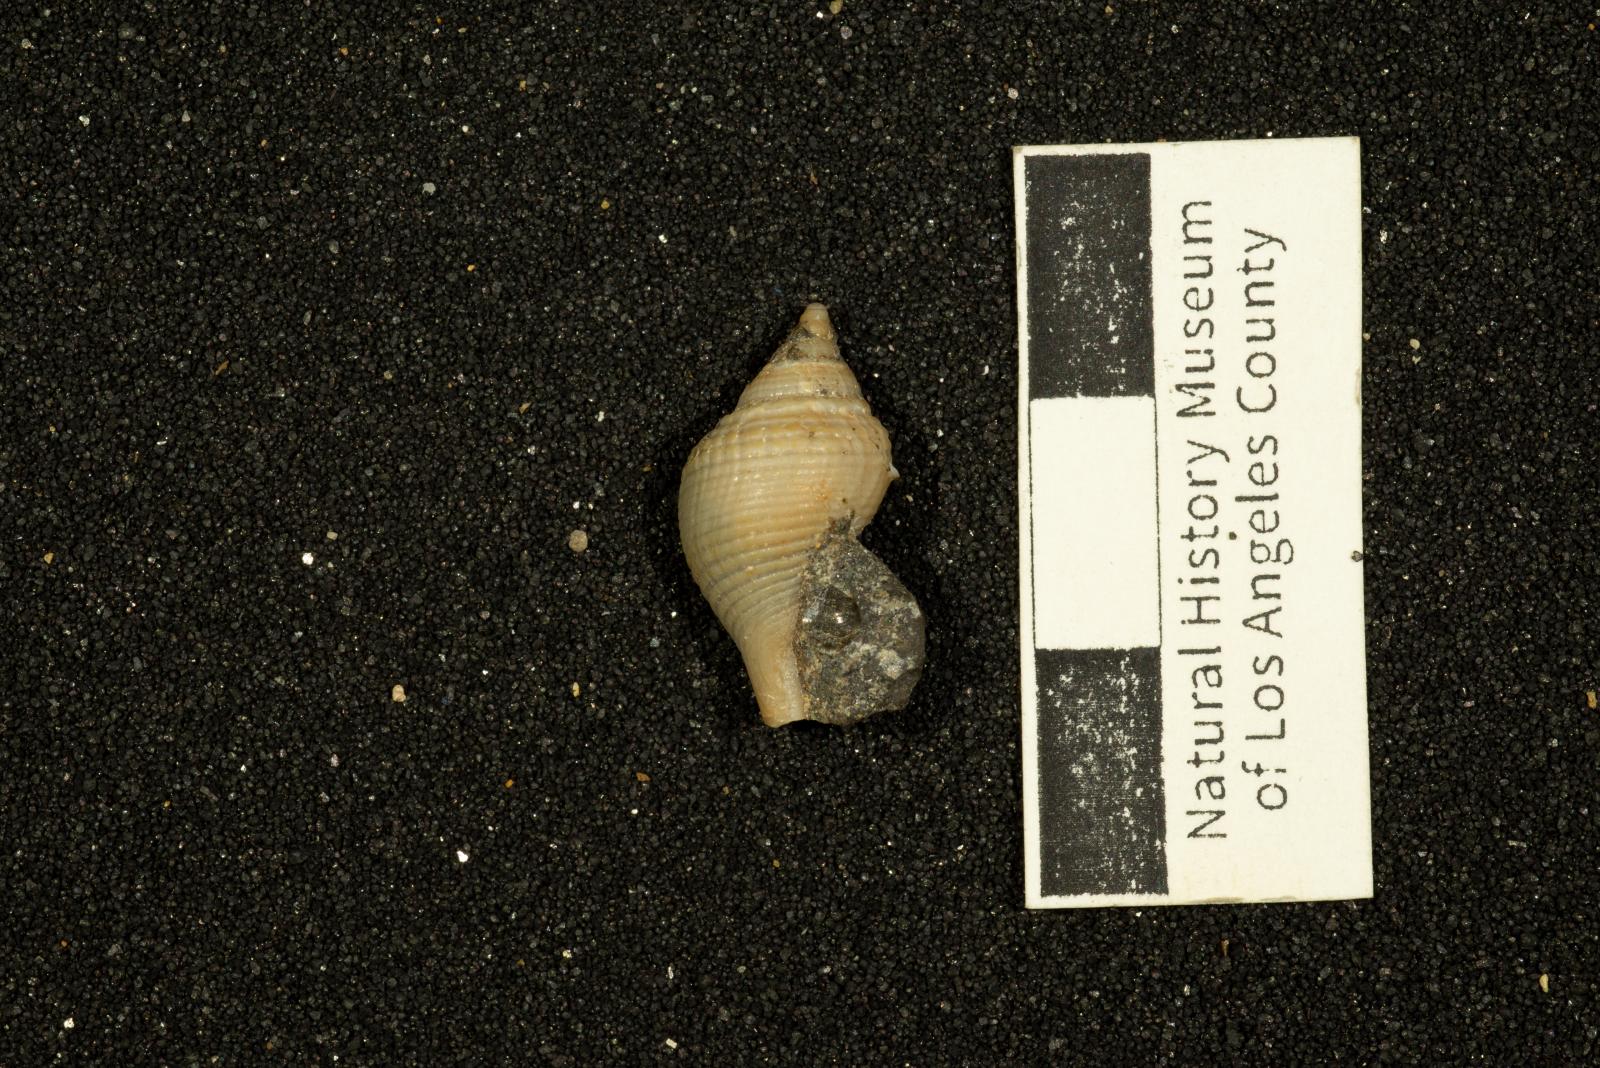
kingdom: Animalia
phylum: Mollusca
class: Gastropoda
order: Neogastropoda
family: Fasciolariidae
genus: Plectocion
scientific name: Plectocion Neptunea curvirostris
